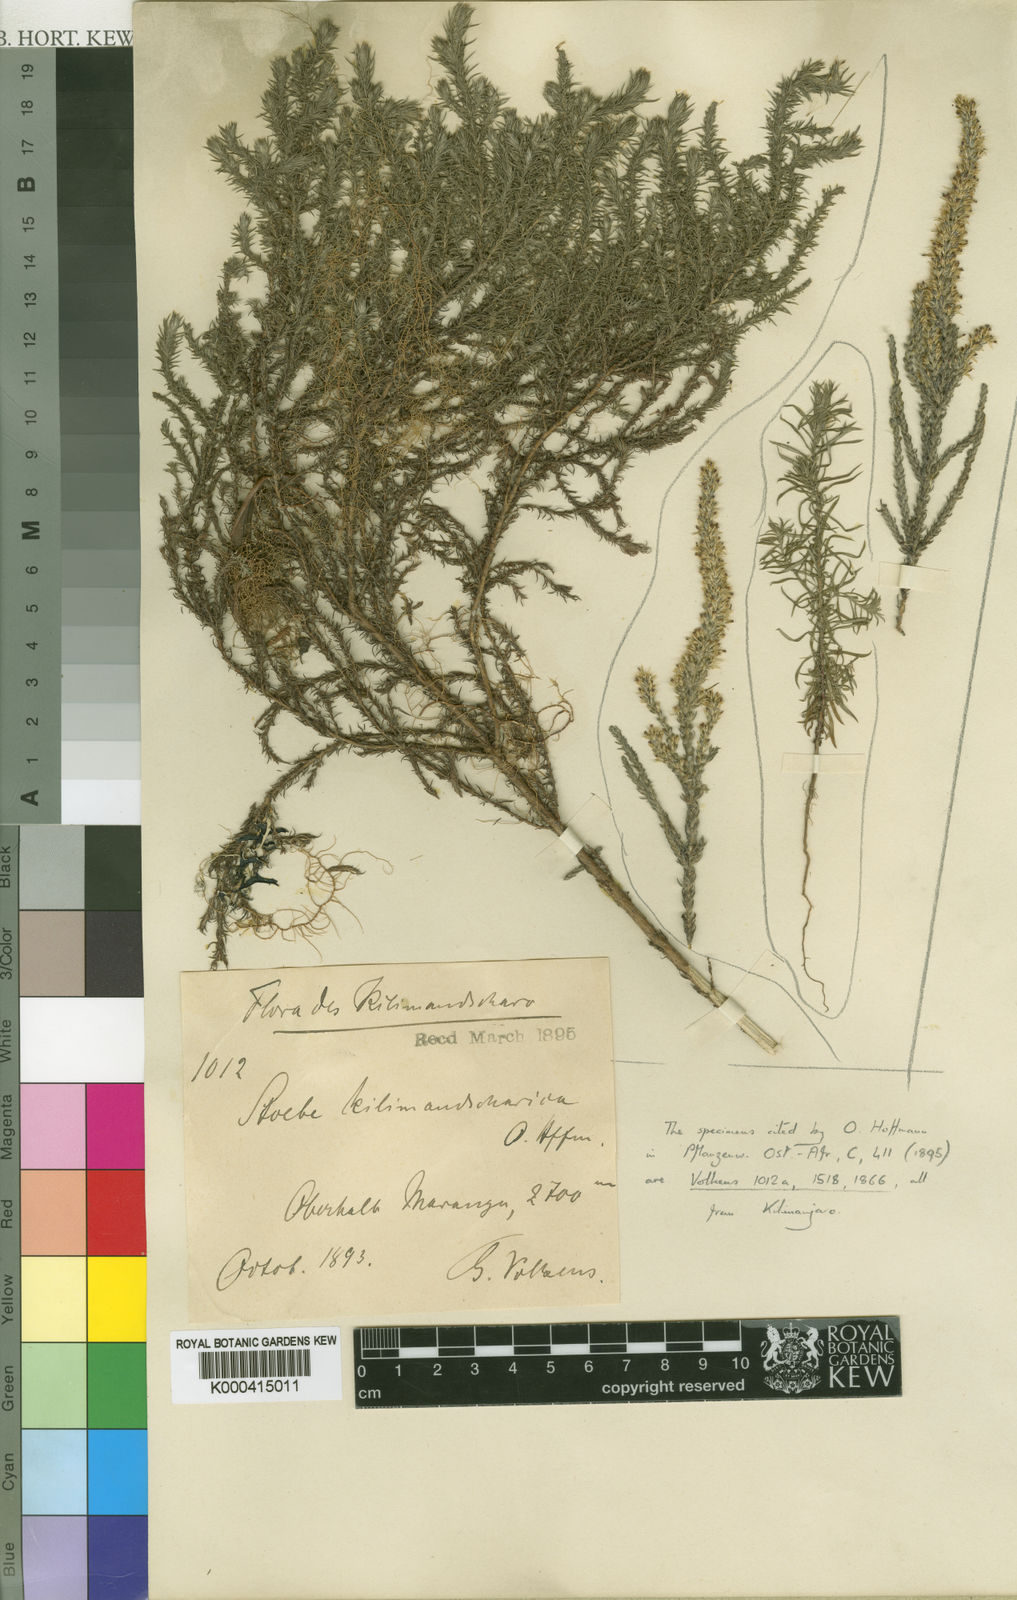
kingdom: Plantae
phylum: Tracheophyta
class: Magnoliopsida
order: Asterales
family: Asteraceae
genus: Seriphium
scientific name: Seriphium kilimandscharicum
